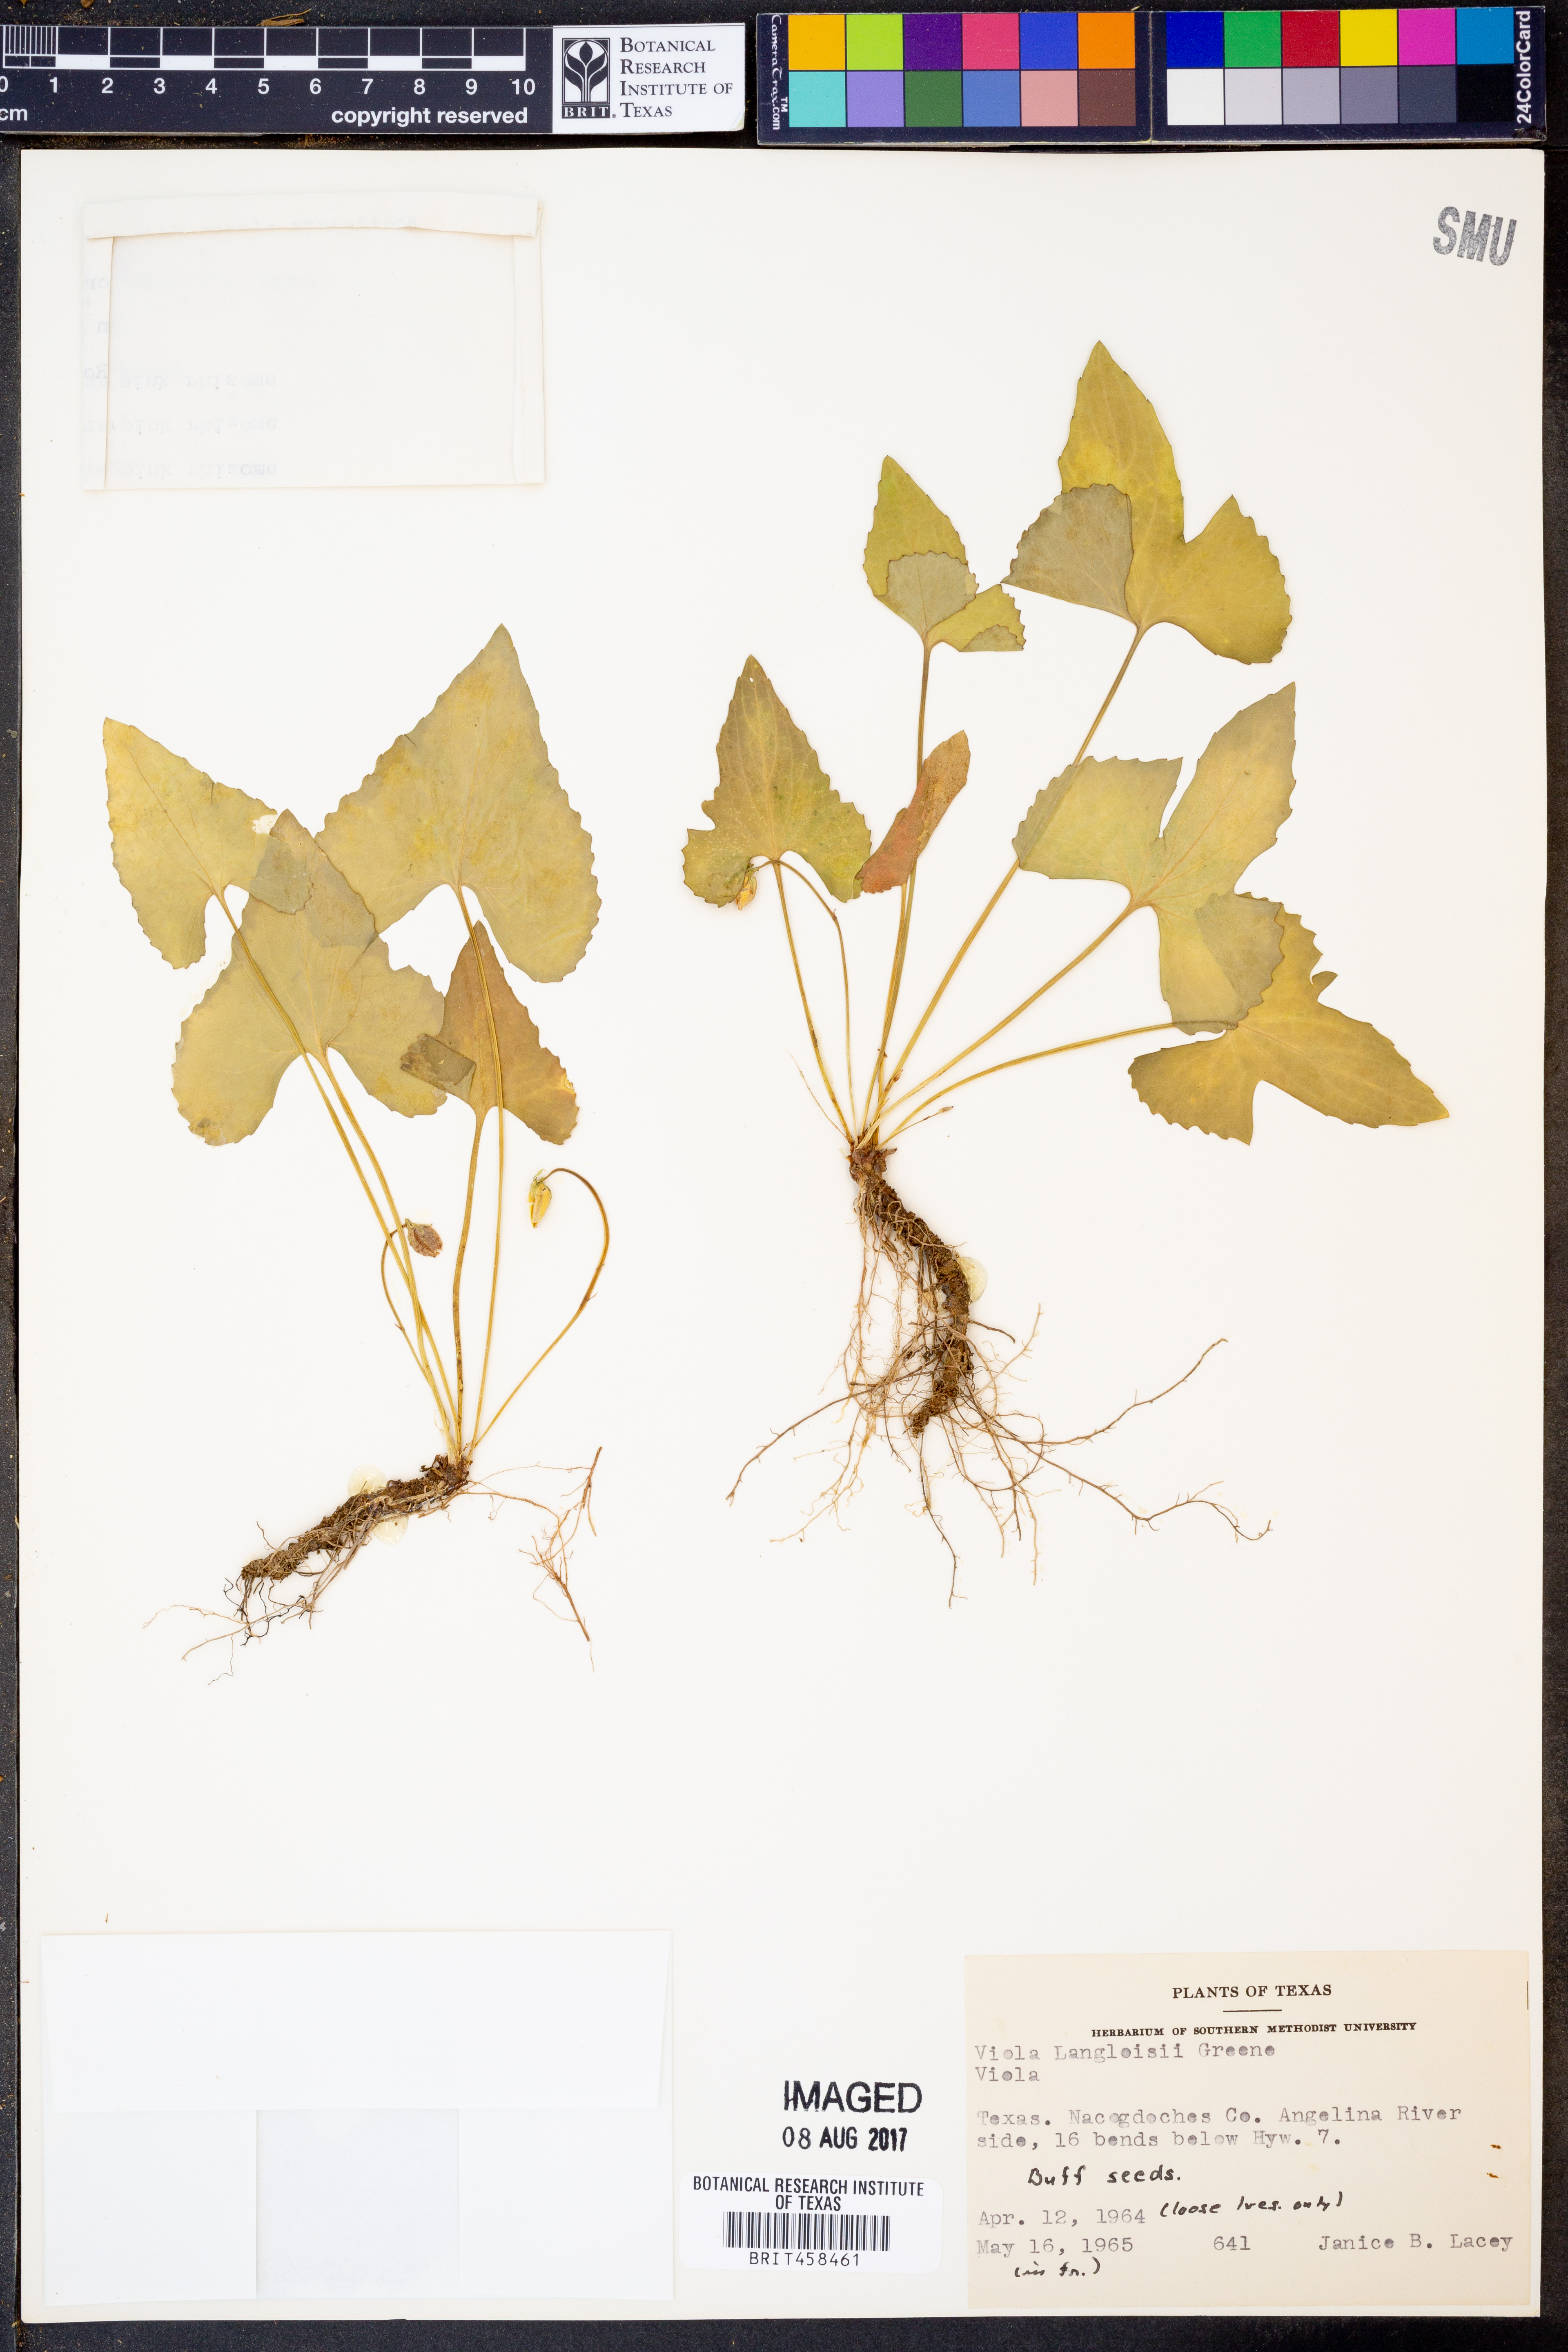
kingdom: Plantae
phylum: Tracheophyta
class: Magnoliopsida
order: Malpighiales
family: Violaceae
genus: Viola
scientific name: Viola langloisii
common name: Langlois' violet
